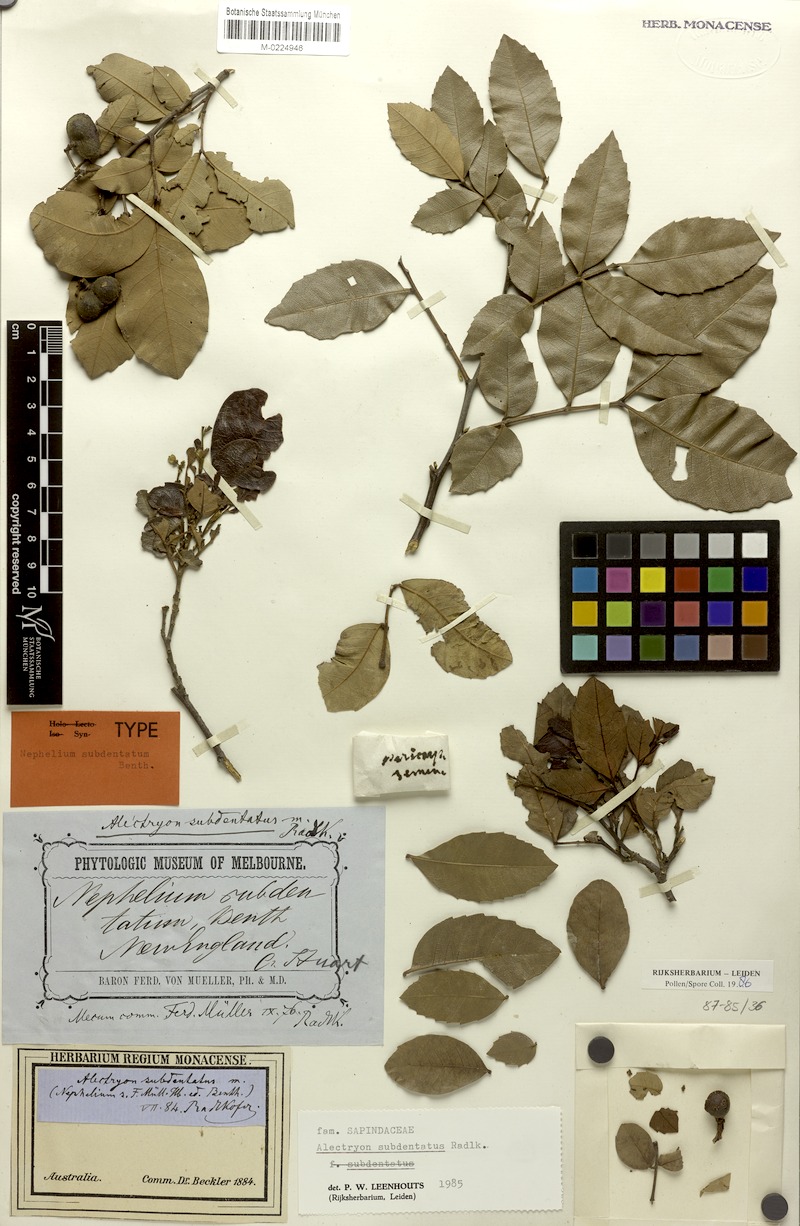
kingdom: Plantae
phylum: Tracheophyta
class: Magnoliopsida
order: Sapindales
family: Sapindaceae
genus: Alectryon
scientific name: Alectryon subdentatus
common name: Hard alectryon
